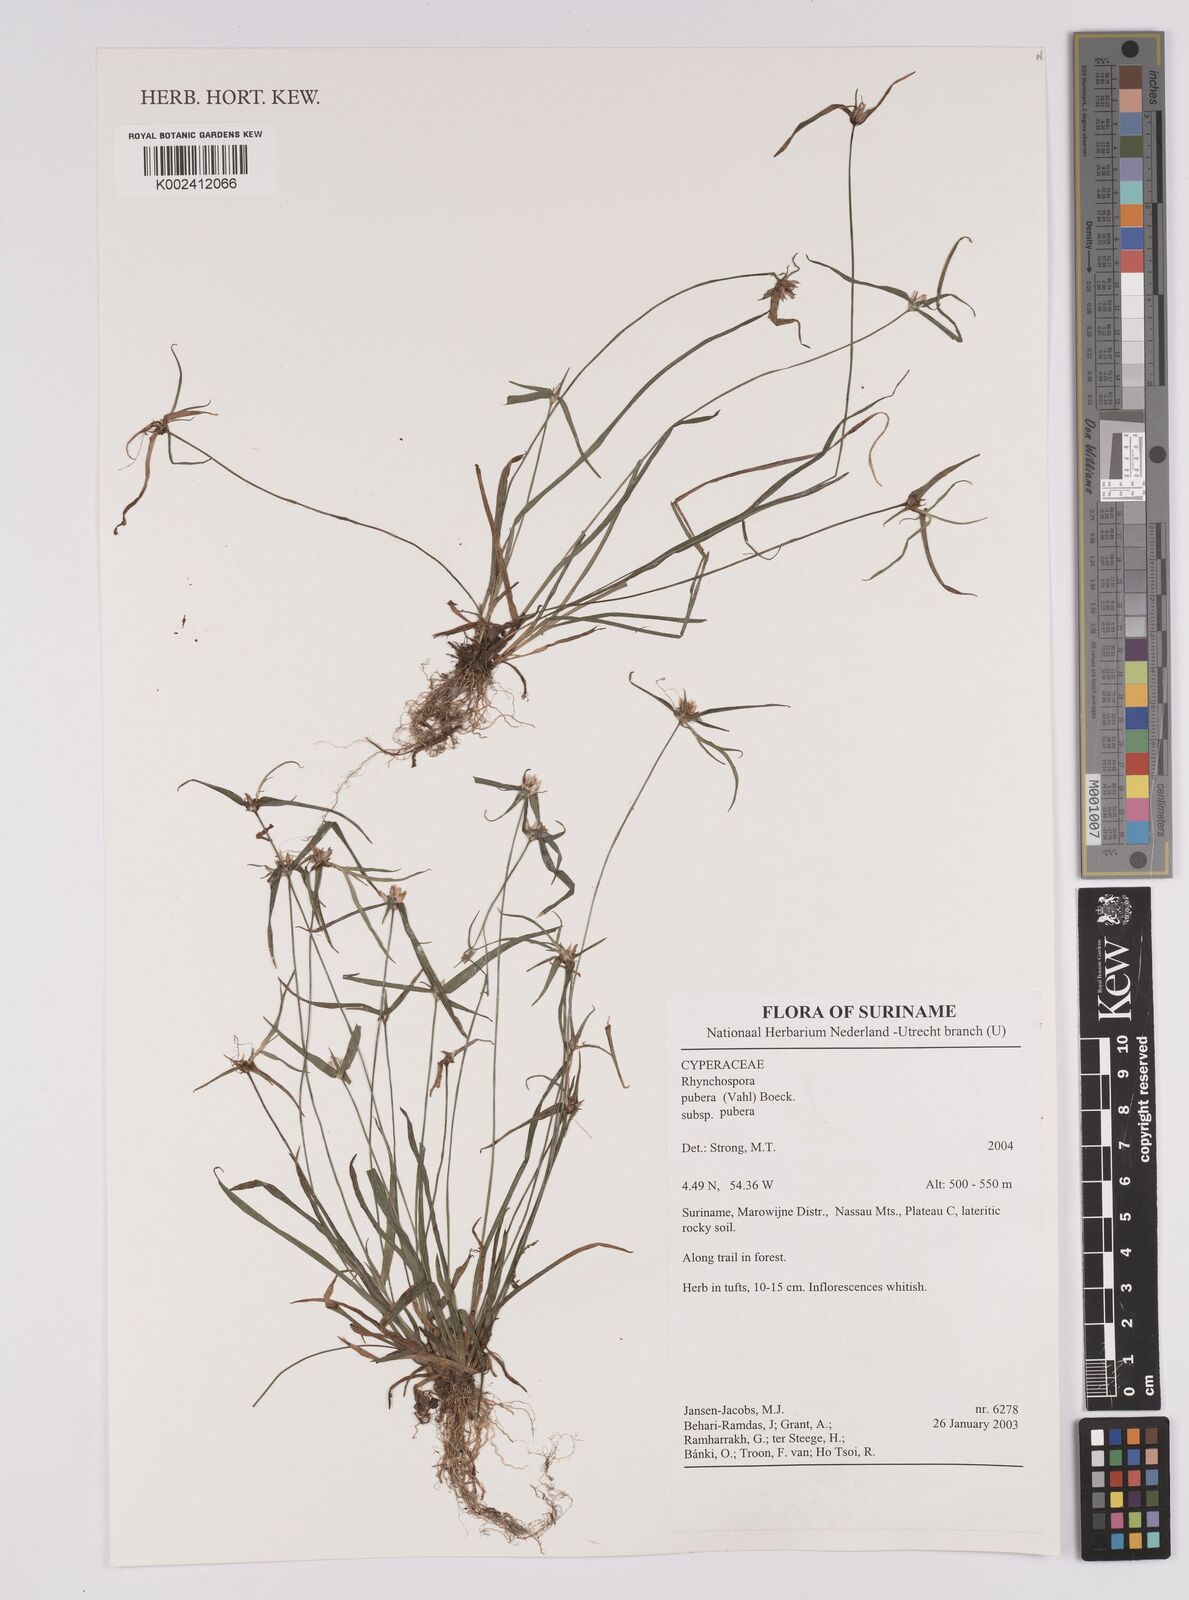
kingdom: Plantae
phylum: Tracheophyta
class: Liliopsida
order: Poales
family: Cyperaceae
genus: Rhynchospora
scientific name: Rhynchospora pubera
